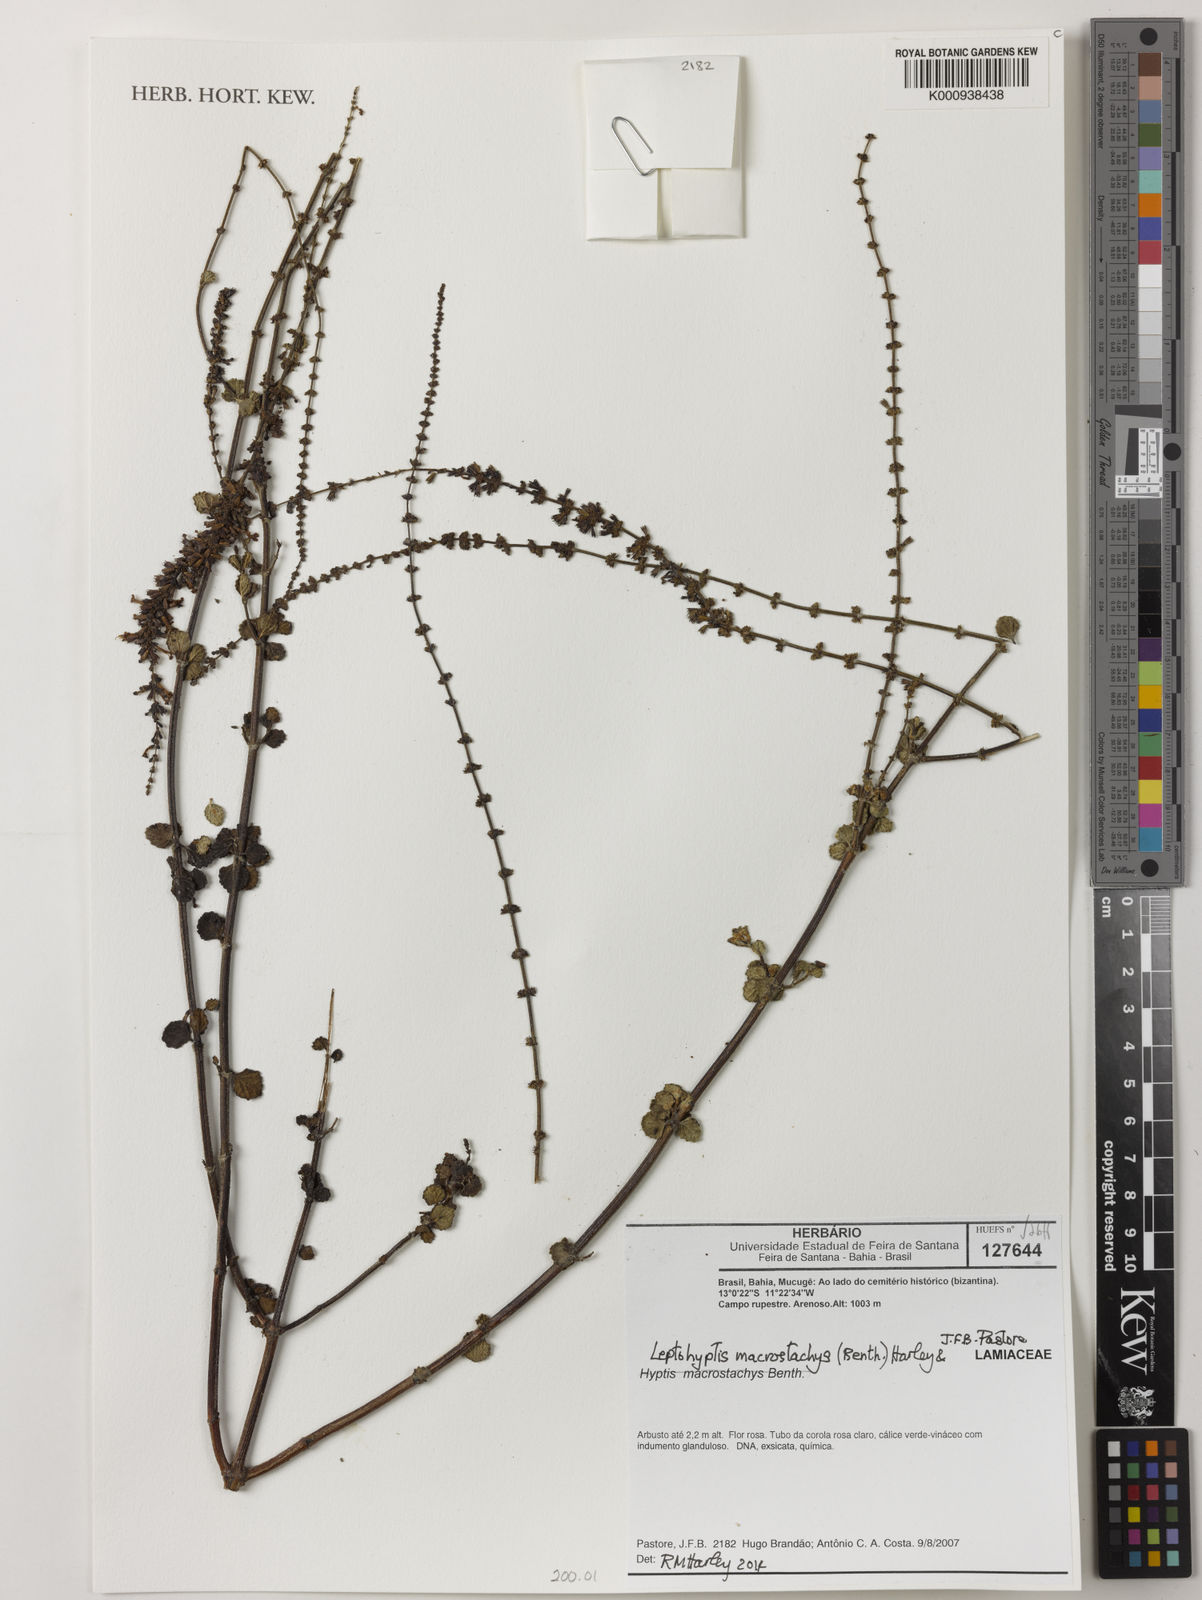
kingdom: Plantae
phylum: Tracheophyta
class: Magnoliopsida
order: Lamiales
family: Lamiaceae
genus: Leptohyptis
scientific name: Leptohyptis macrostachys
